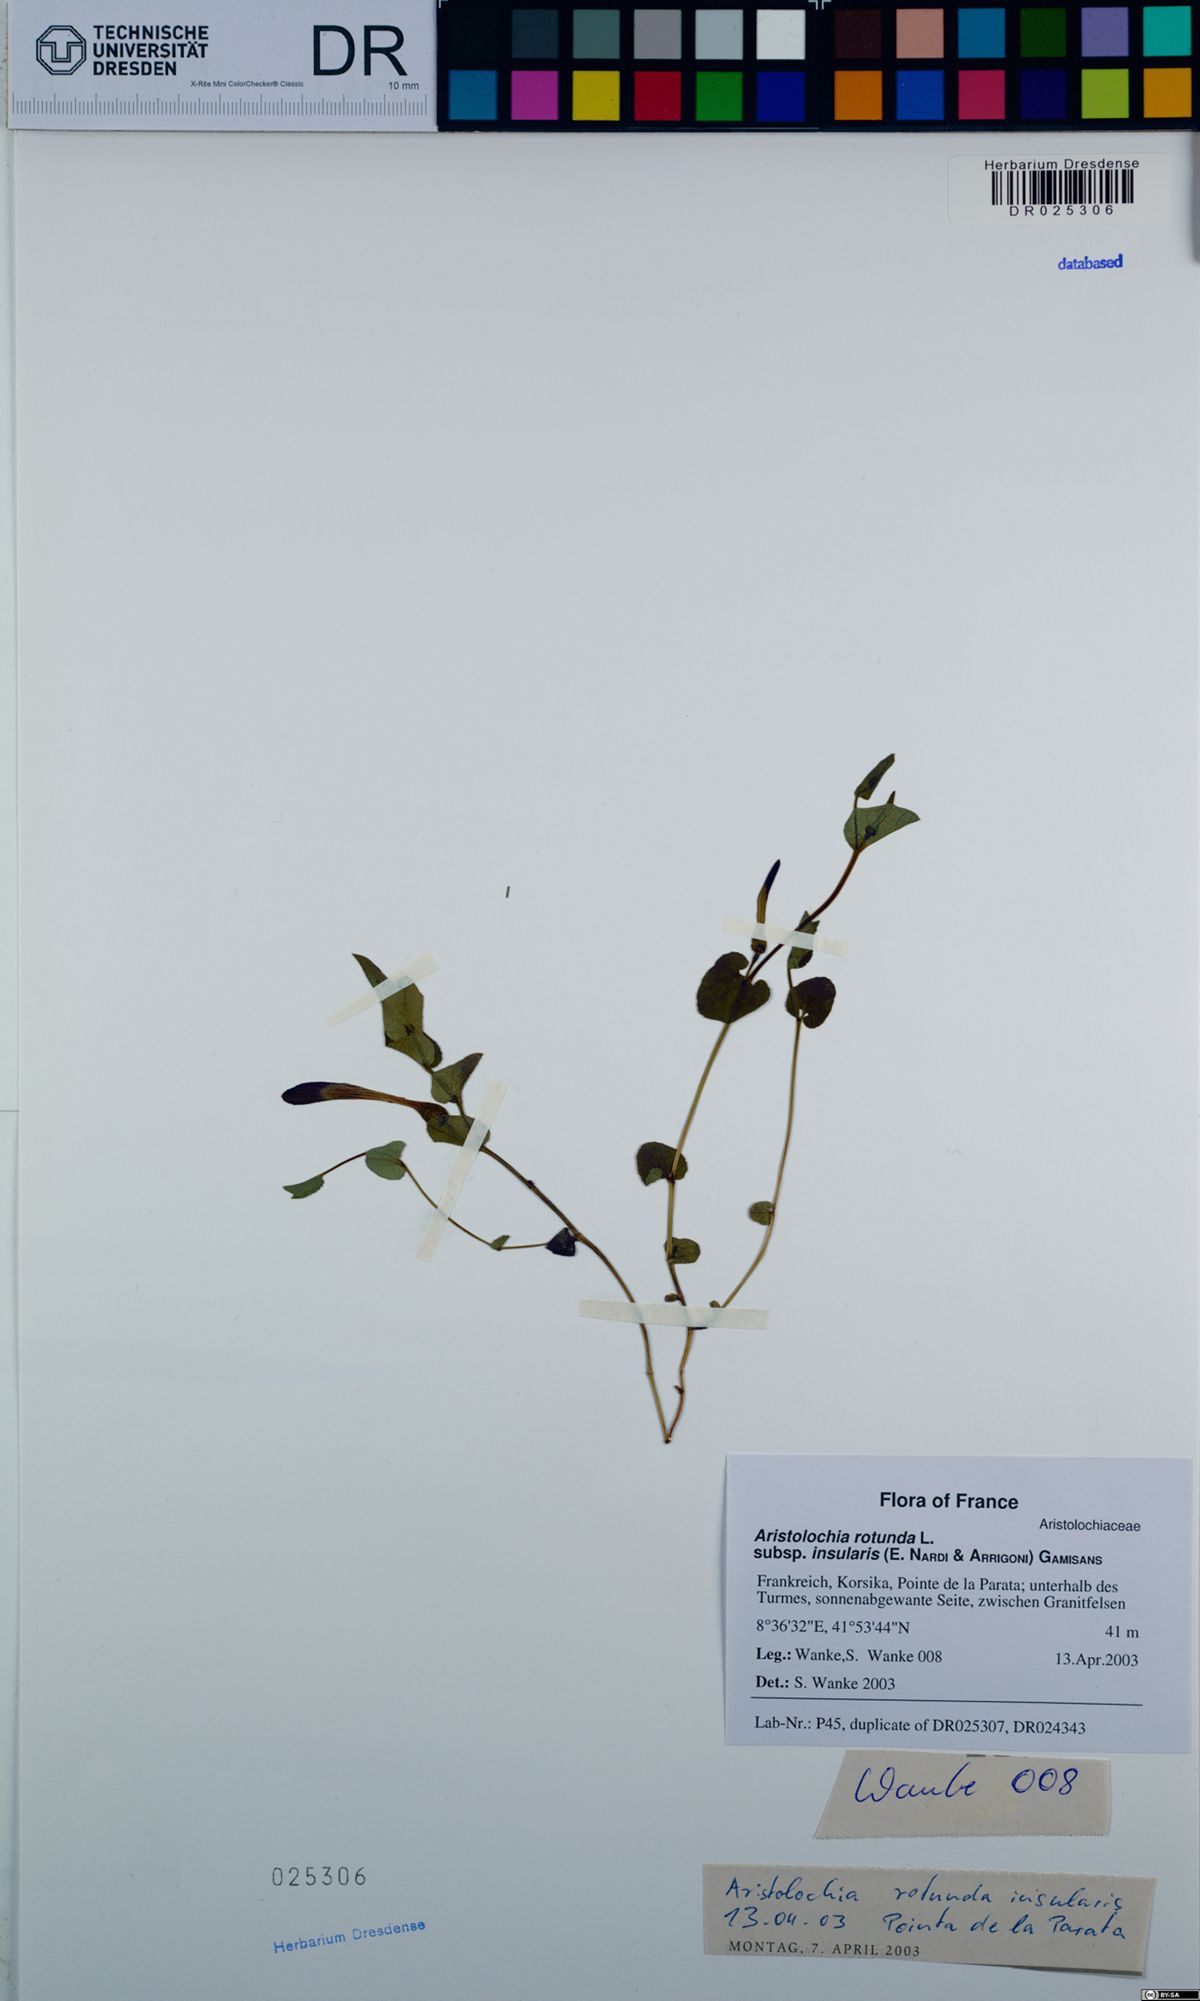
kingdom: Plantae
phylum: Tracheophyta
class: Magnoliopsida
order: Piperales
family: Aristolochiaceae
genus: Aristolochia
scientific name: Aristolochia rotunda
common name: Smearwort
